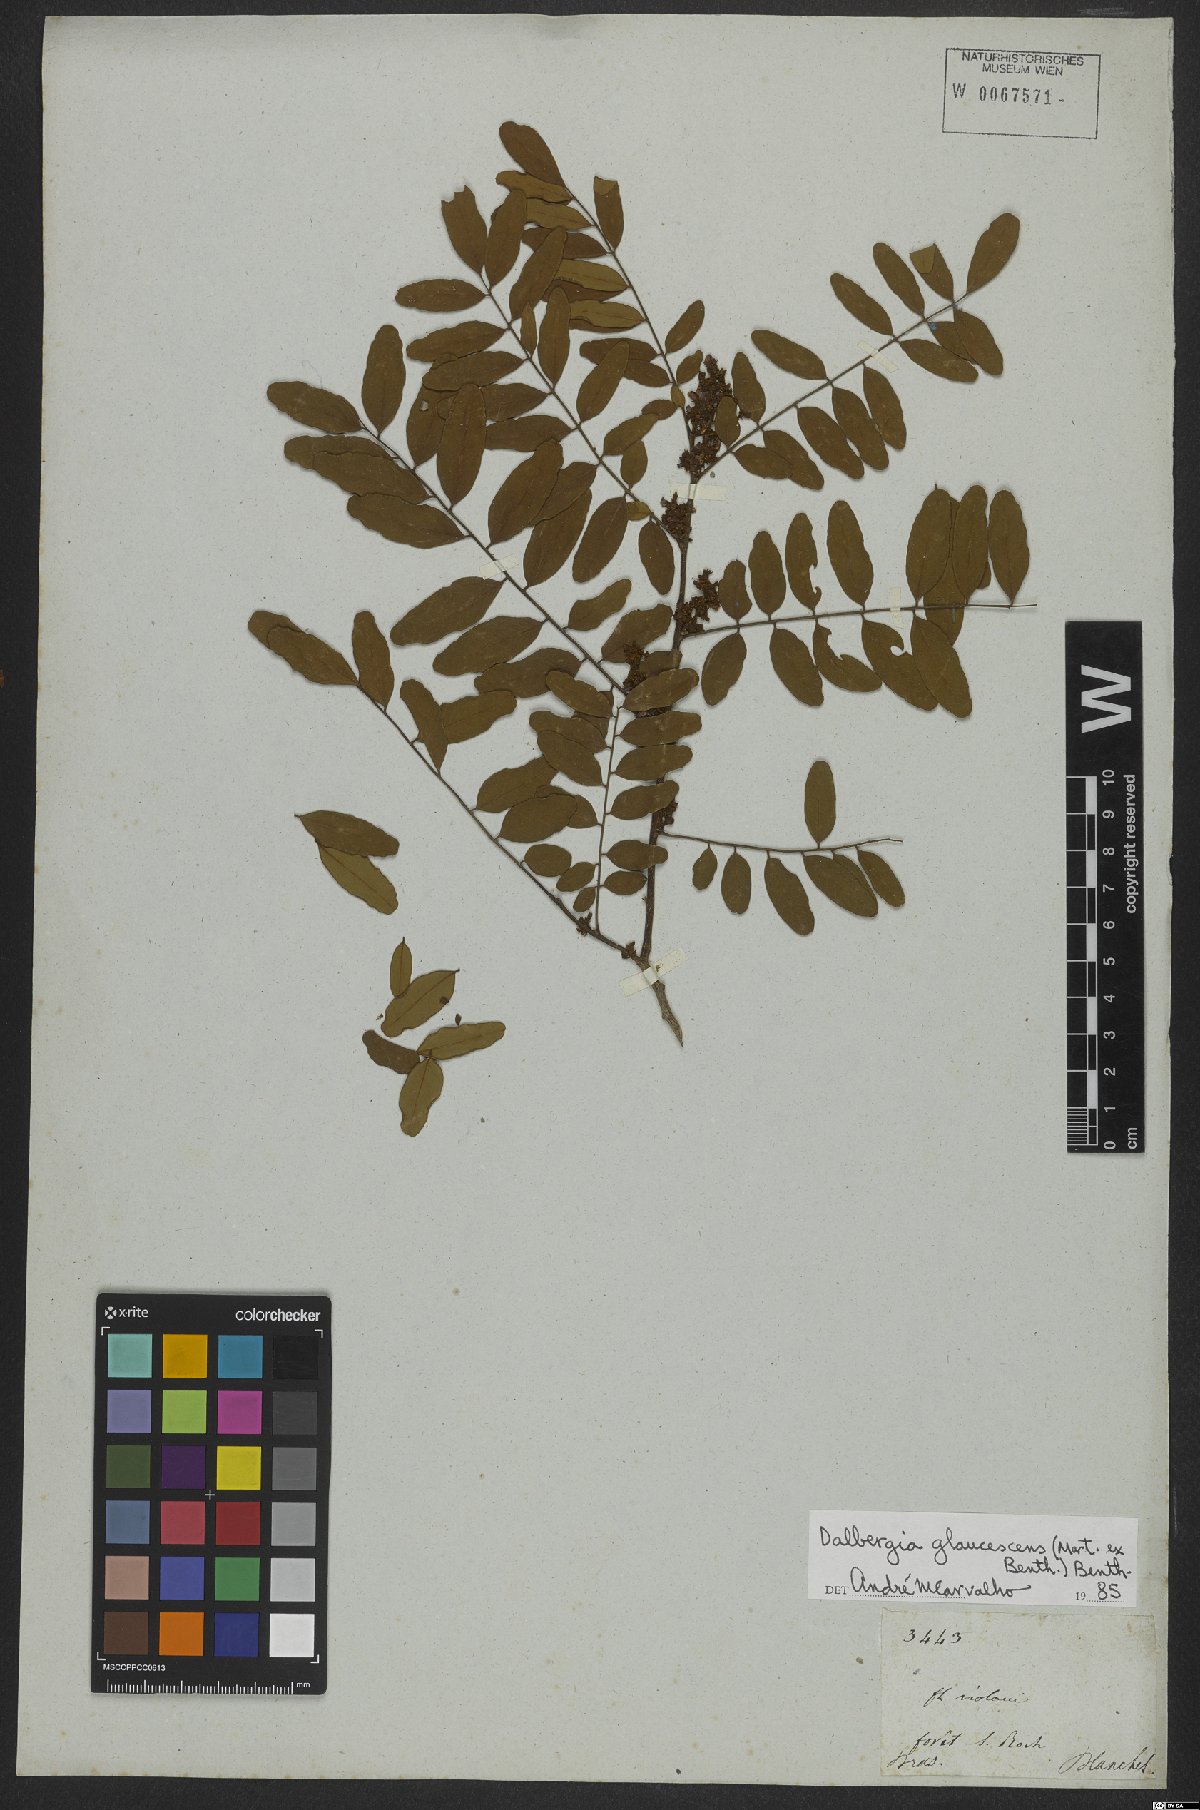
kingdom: Plantae
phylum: Tracheophyta
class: Magnoliopsida
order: Fabales
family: Fabaceae
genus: Dalbergia
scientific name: Dalbergia glaucescens
